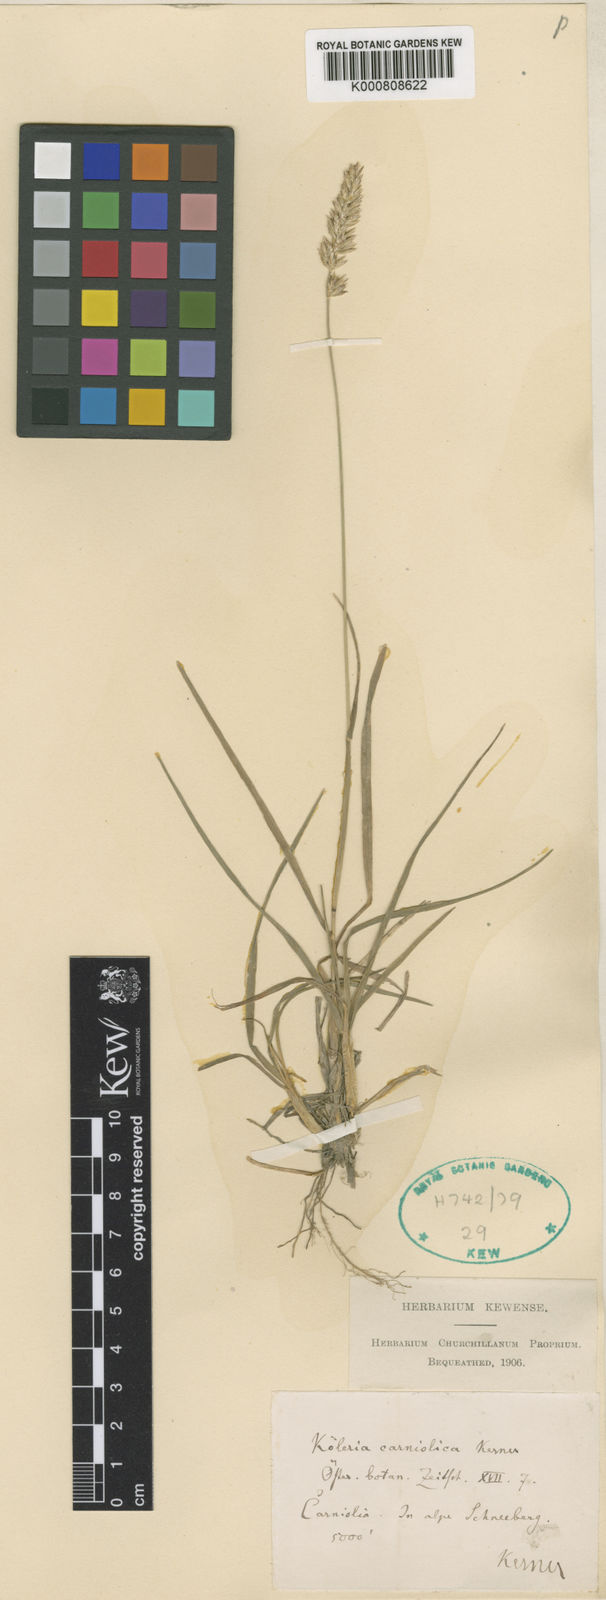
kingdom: Plantae
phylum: Tracheophyta
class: Liliopsida
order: Poales
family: Poaceae
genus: Koeleria
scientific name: Koeleria eriostachya
